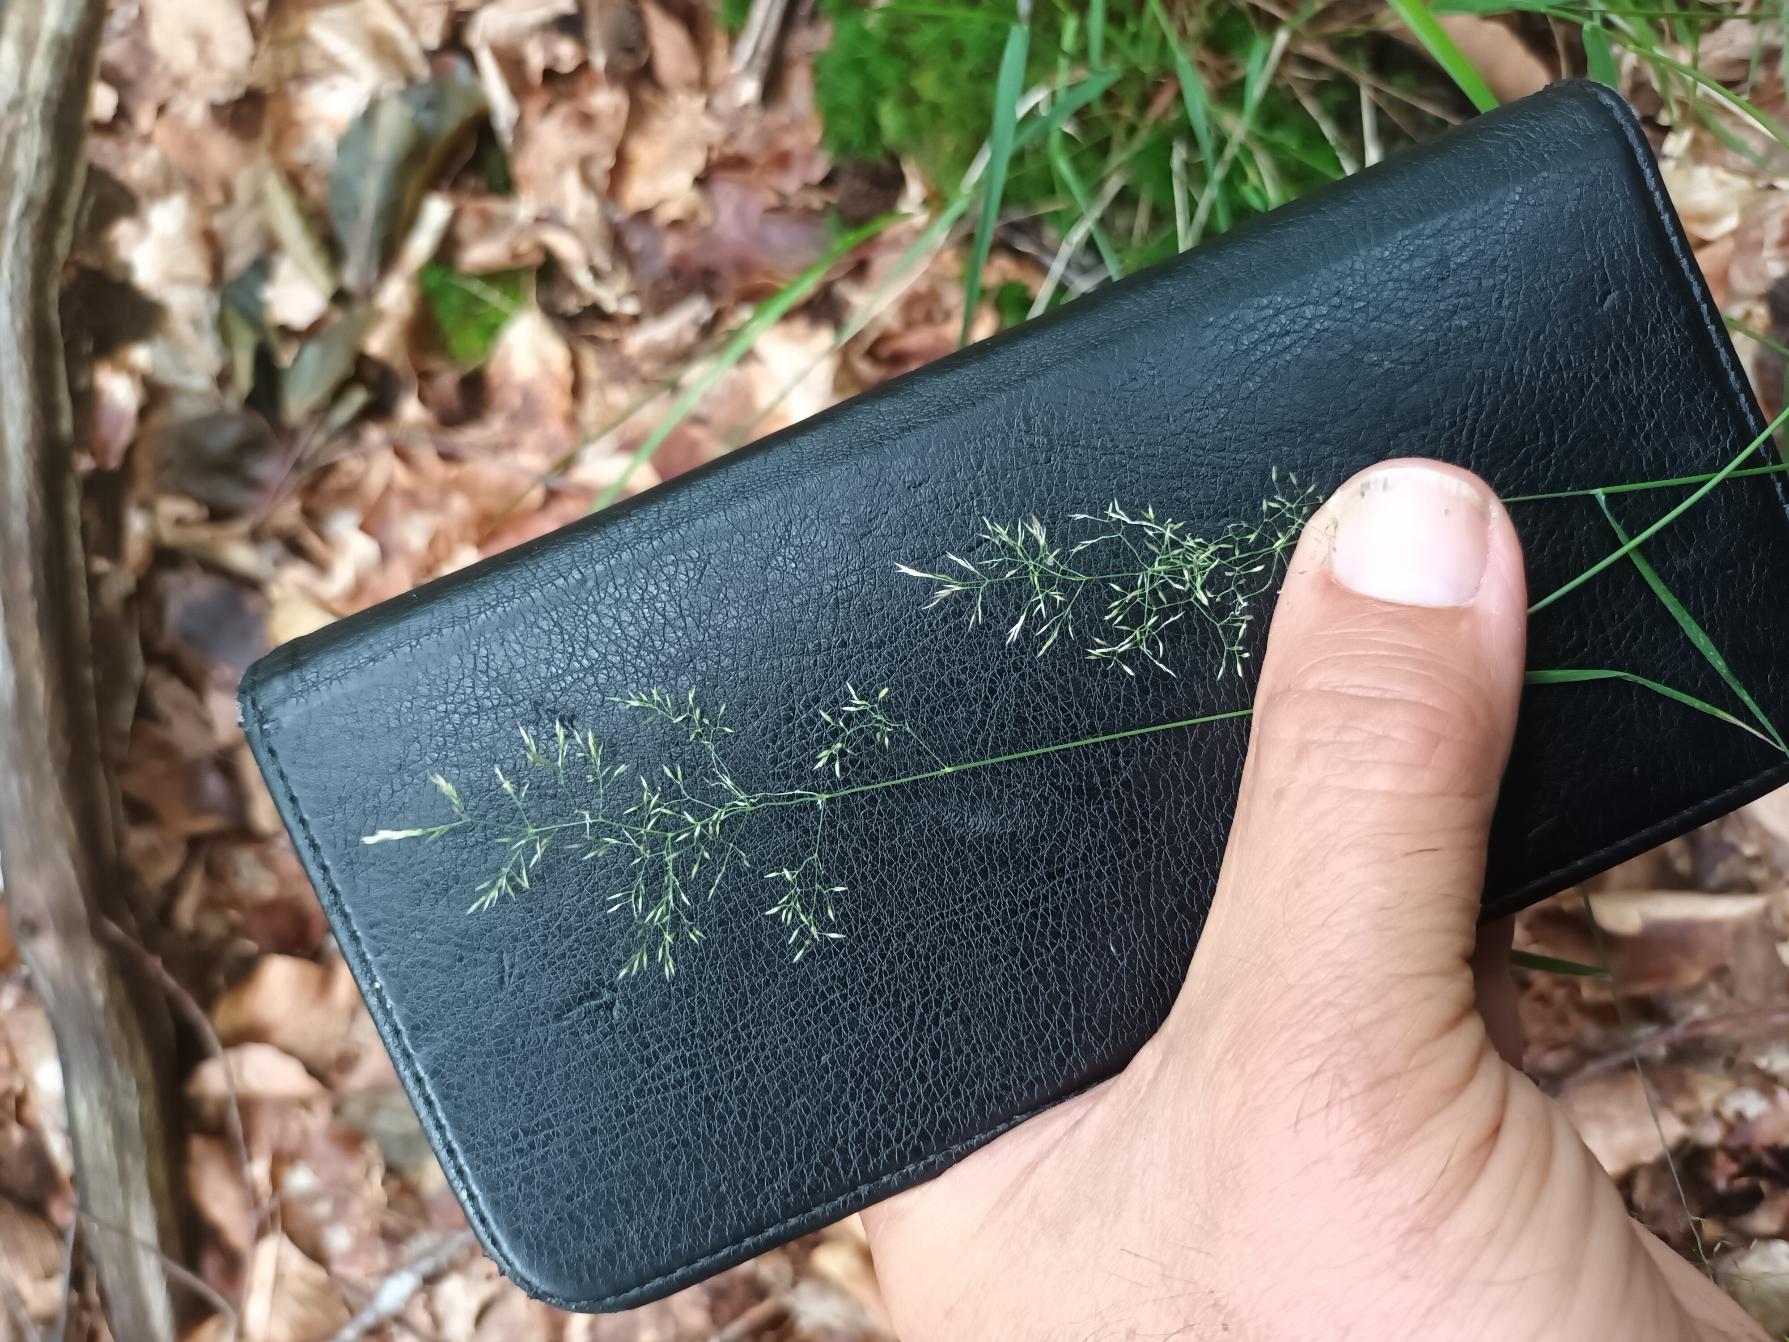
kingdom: Plantae
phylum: Tracheophyta
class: Liliopsida
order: Poales
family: Poaceae
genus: Agrostis
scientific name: Agrostis capillaris
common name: Almindelig hvene
